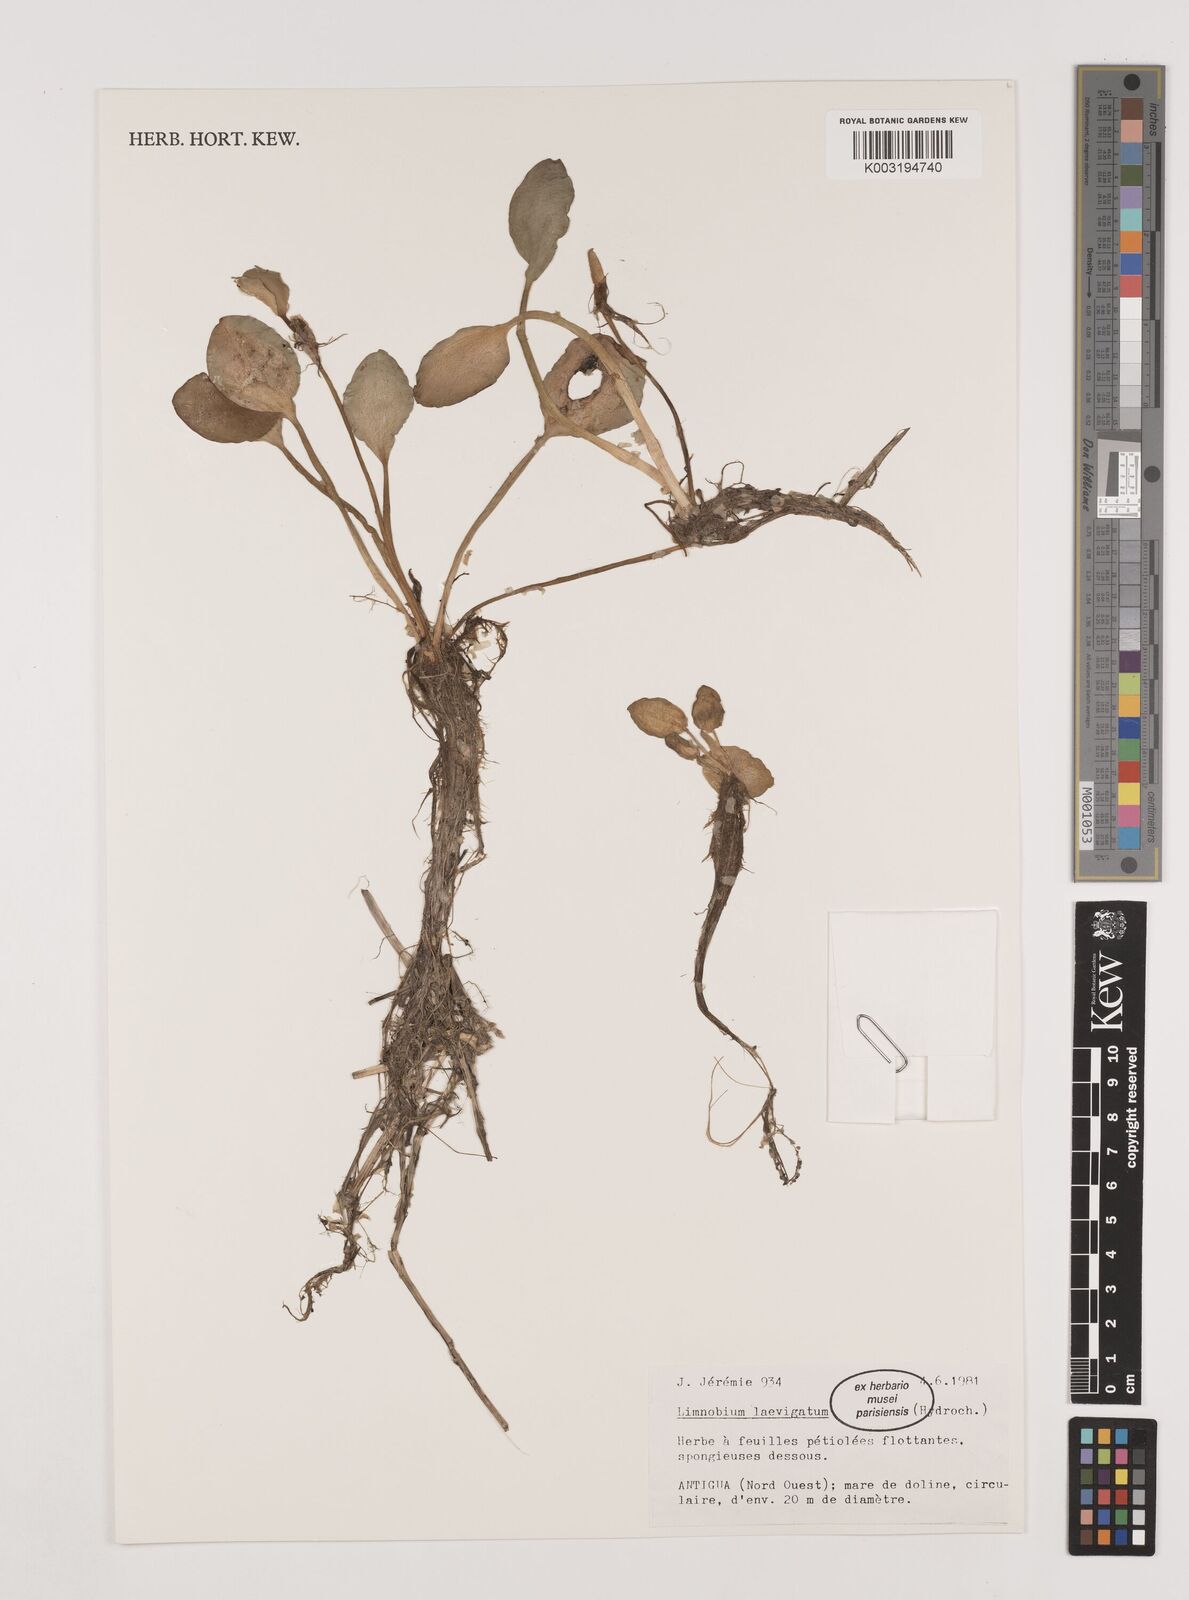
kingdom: Plantae
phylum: Tracheophyta
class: Liliopsida
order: Alismatales
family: Hydrocharitaceae
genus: Hydrocharis
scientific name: Hydrocharis laevigata
